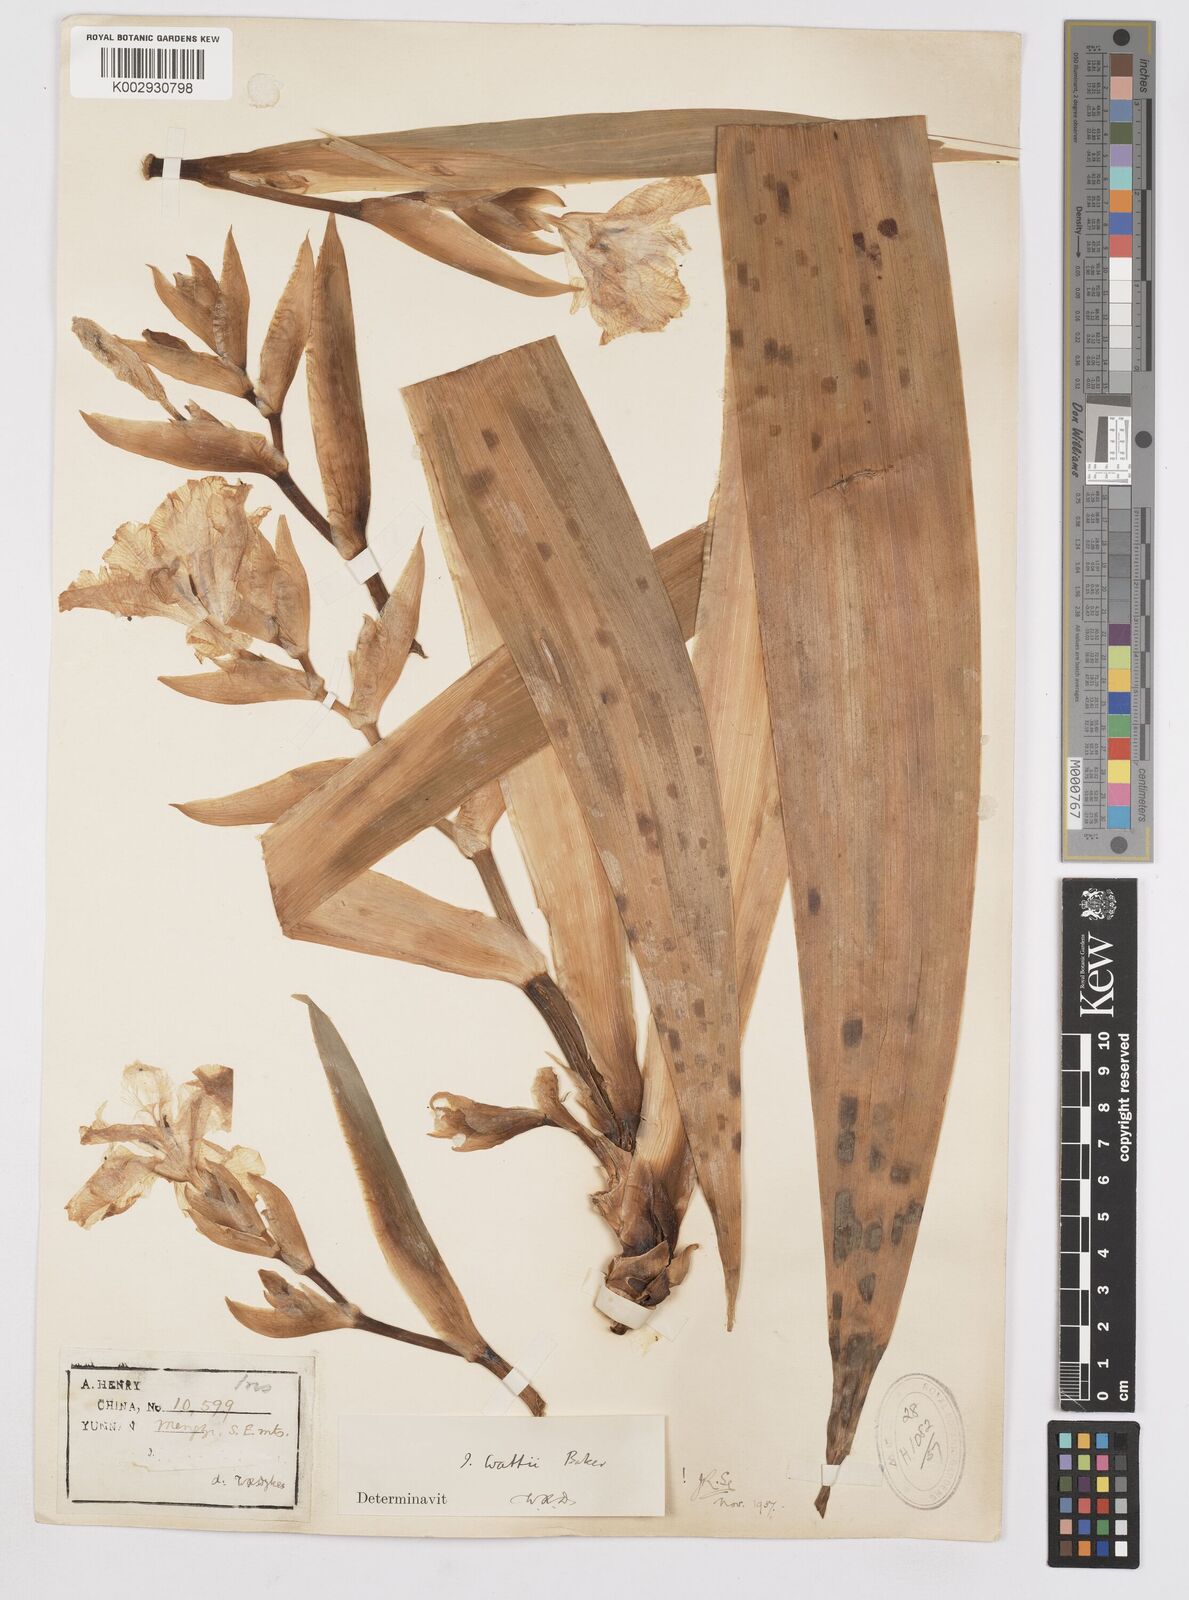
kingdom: Plantae
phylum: Tracheophyta
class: Liliopsida
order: Asparagales
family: Iridaceae
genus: Iris
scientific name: Iris wattii
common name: Fan-shape iris
